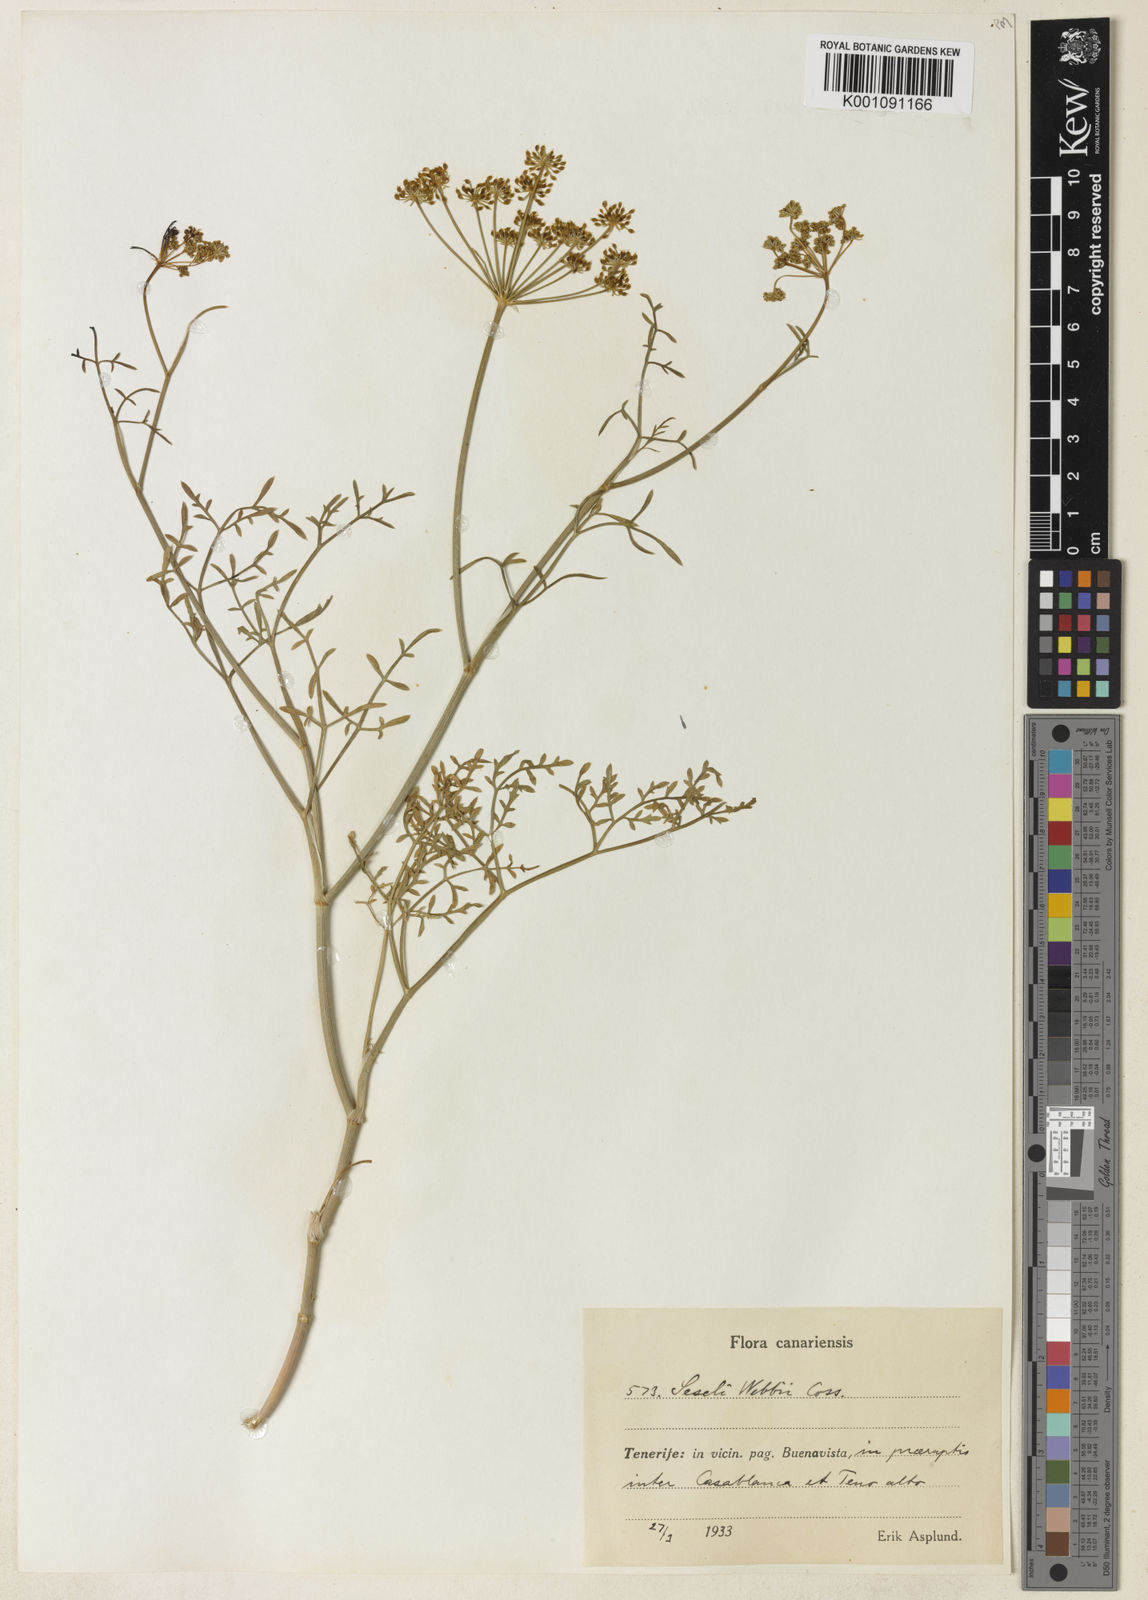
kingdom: Plantae
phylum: Tracheophyta
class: Magnoliopsida
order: Apiales
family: Apiaceae
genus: Rutheopsis
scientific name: Rutheopsis tortuosa
